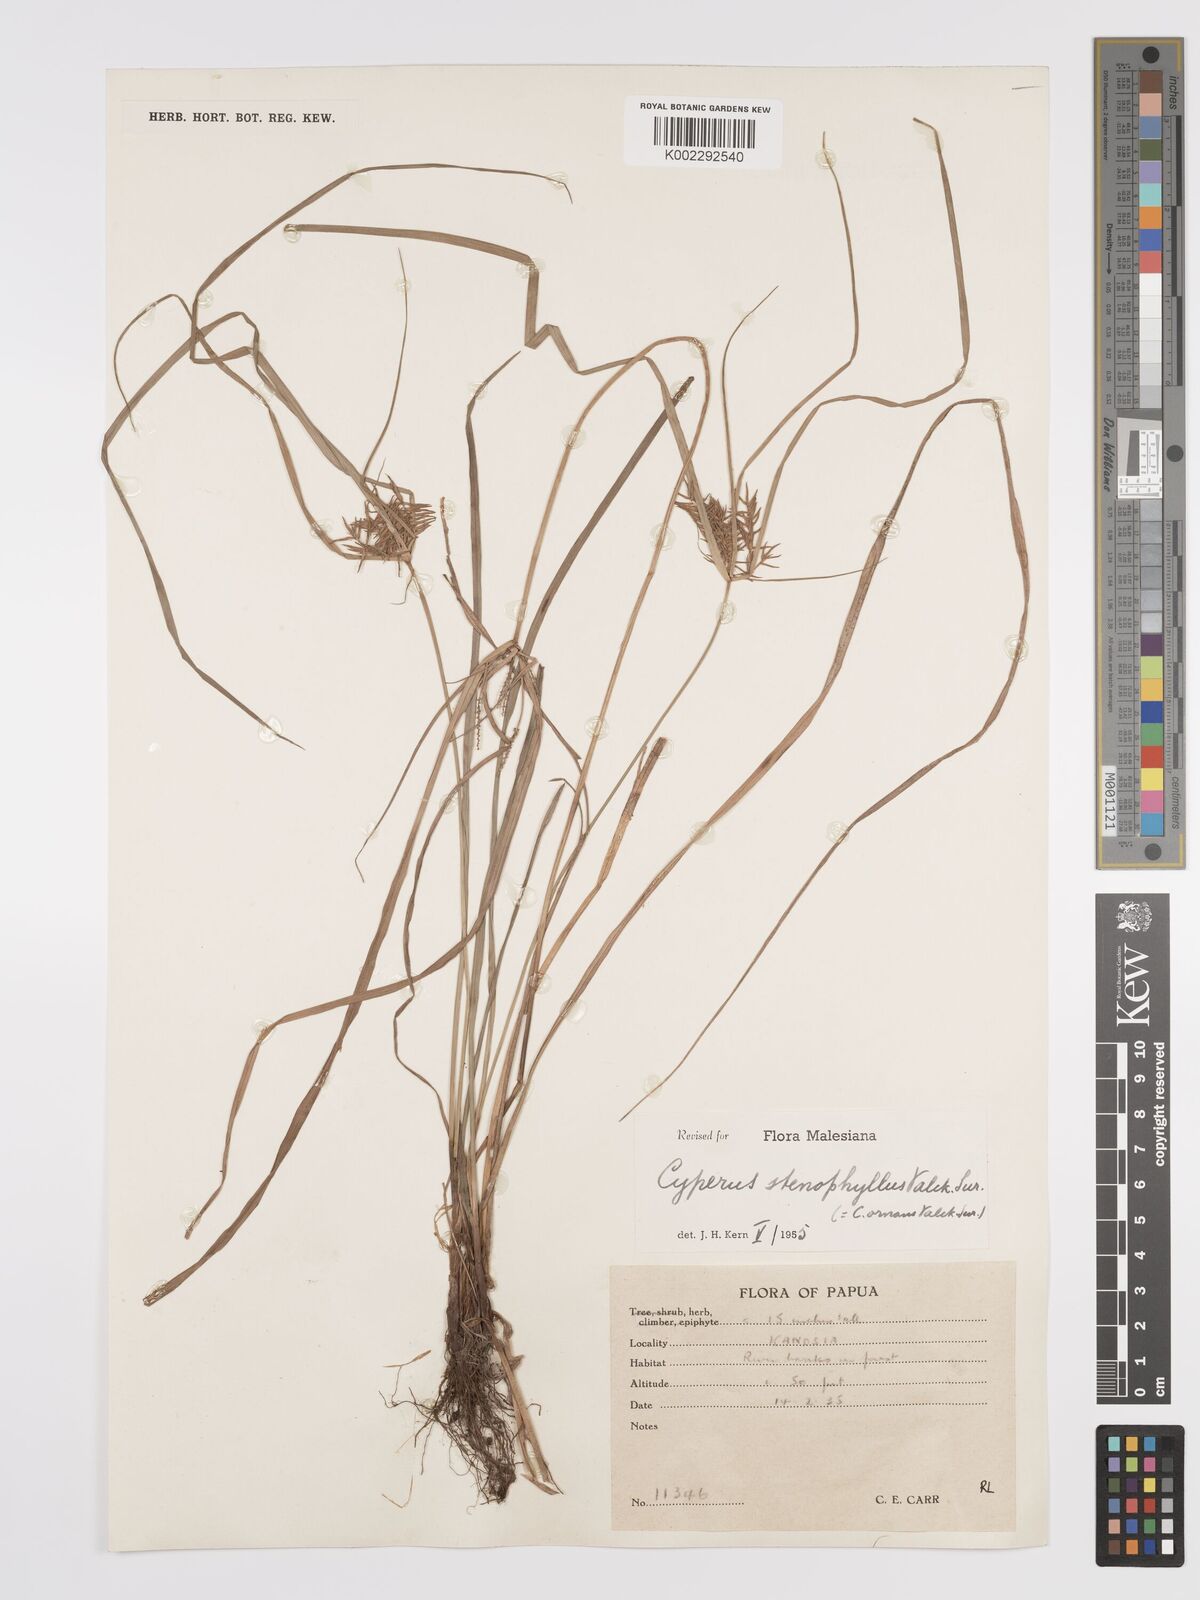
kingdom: Plantae
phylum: Tracheophyta
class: Liliopsida
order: Poales
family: Cyperaceae
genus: Cyperus
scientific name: Cyperus stenophyllus
